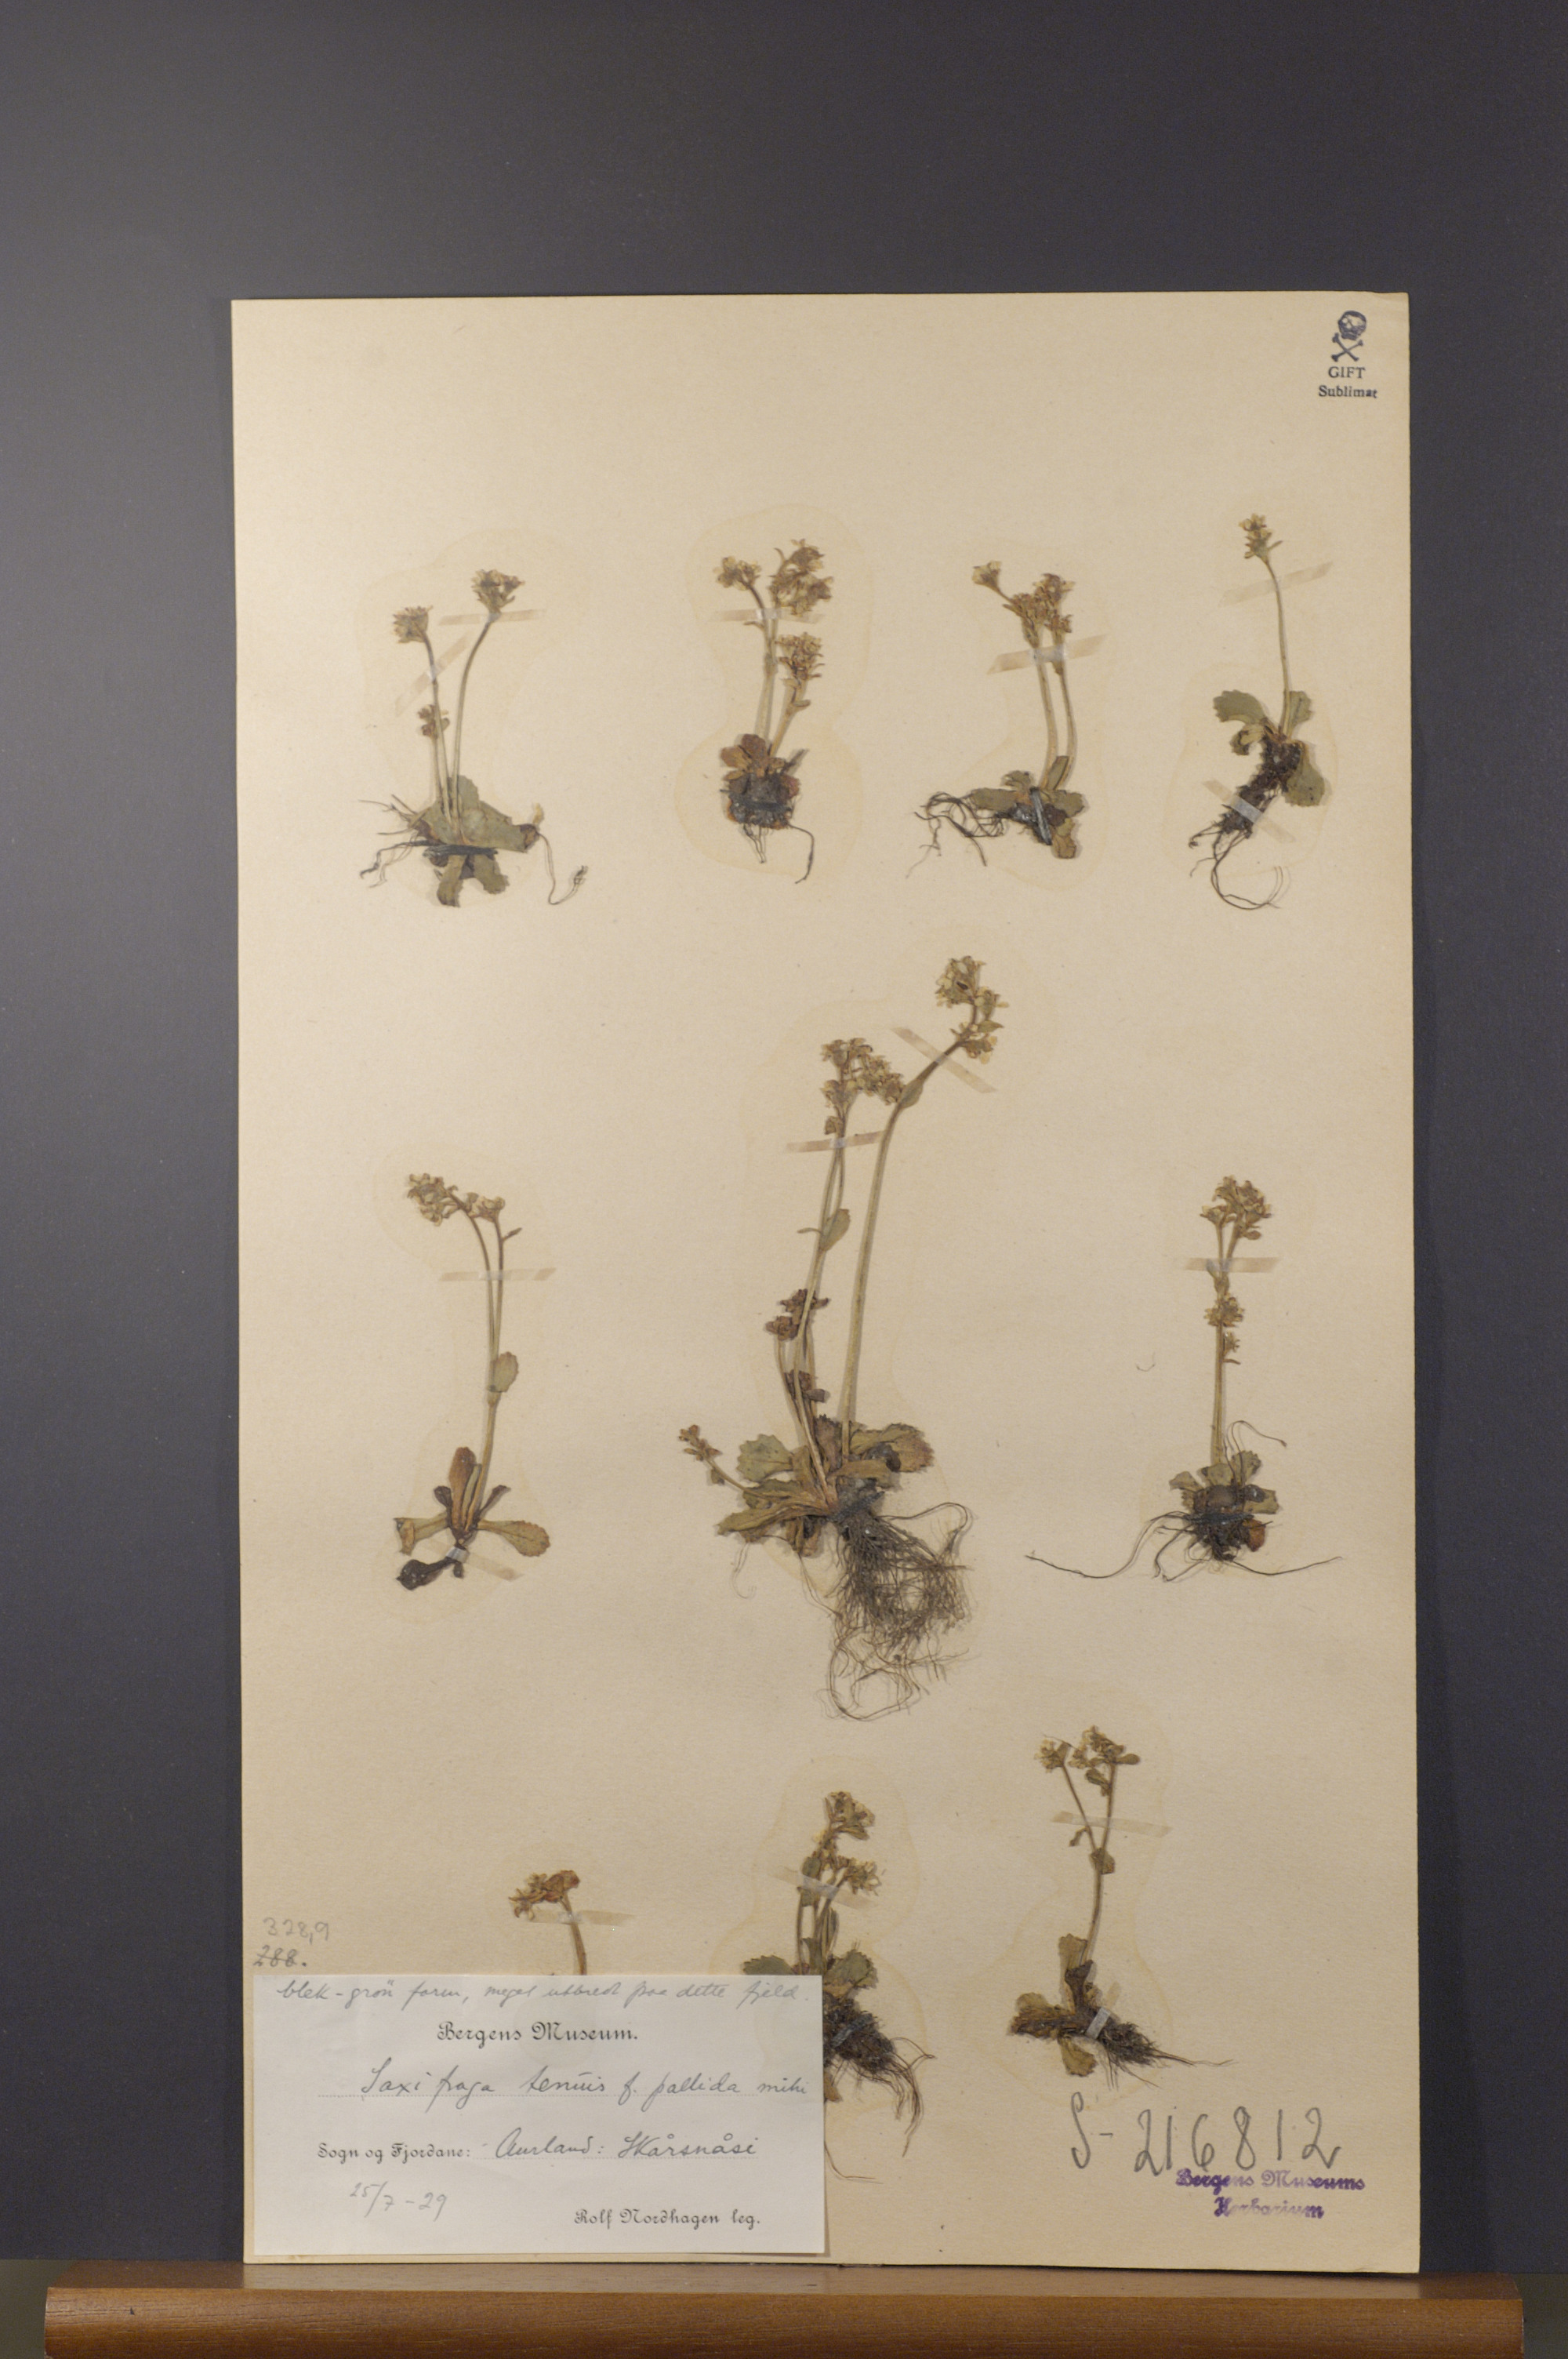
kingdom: Plantae
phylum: Tracheophyta
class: Magnoliopsida
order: Saxifragales
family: Saxifragaceae
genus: Micranthes
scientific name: Micranthes tenuis
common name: Ottertail pass saxifrage
